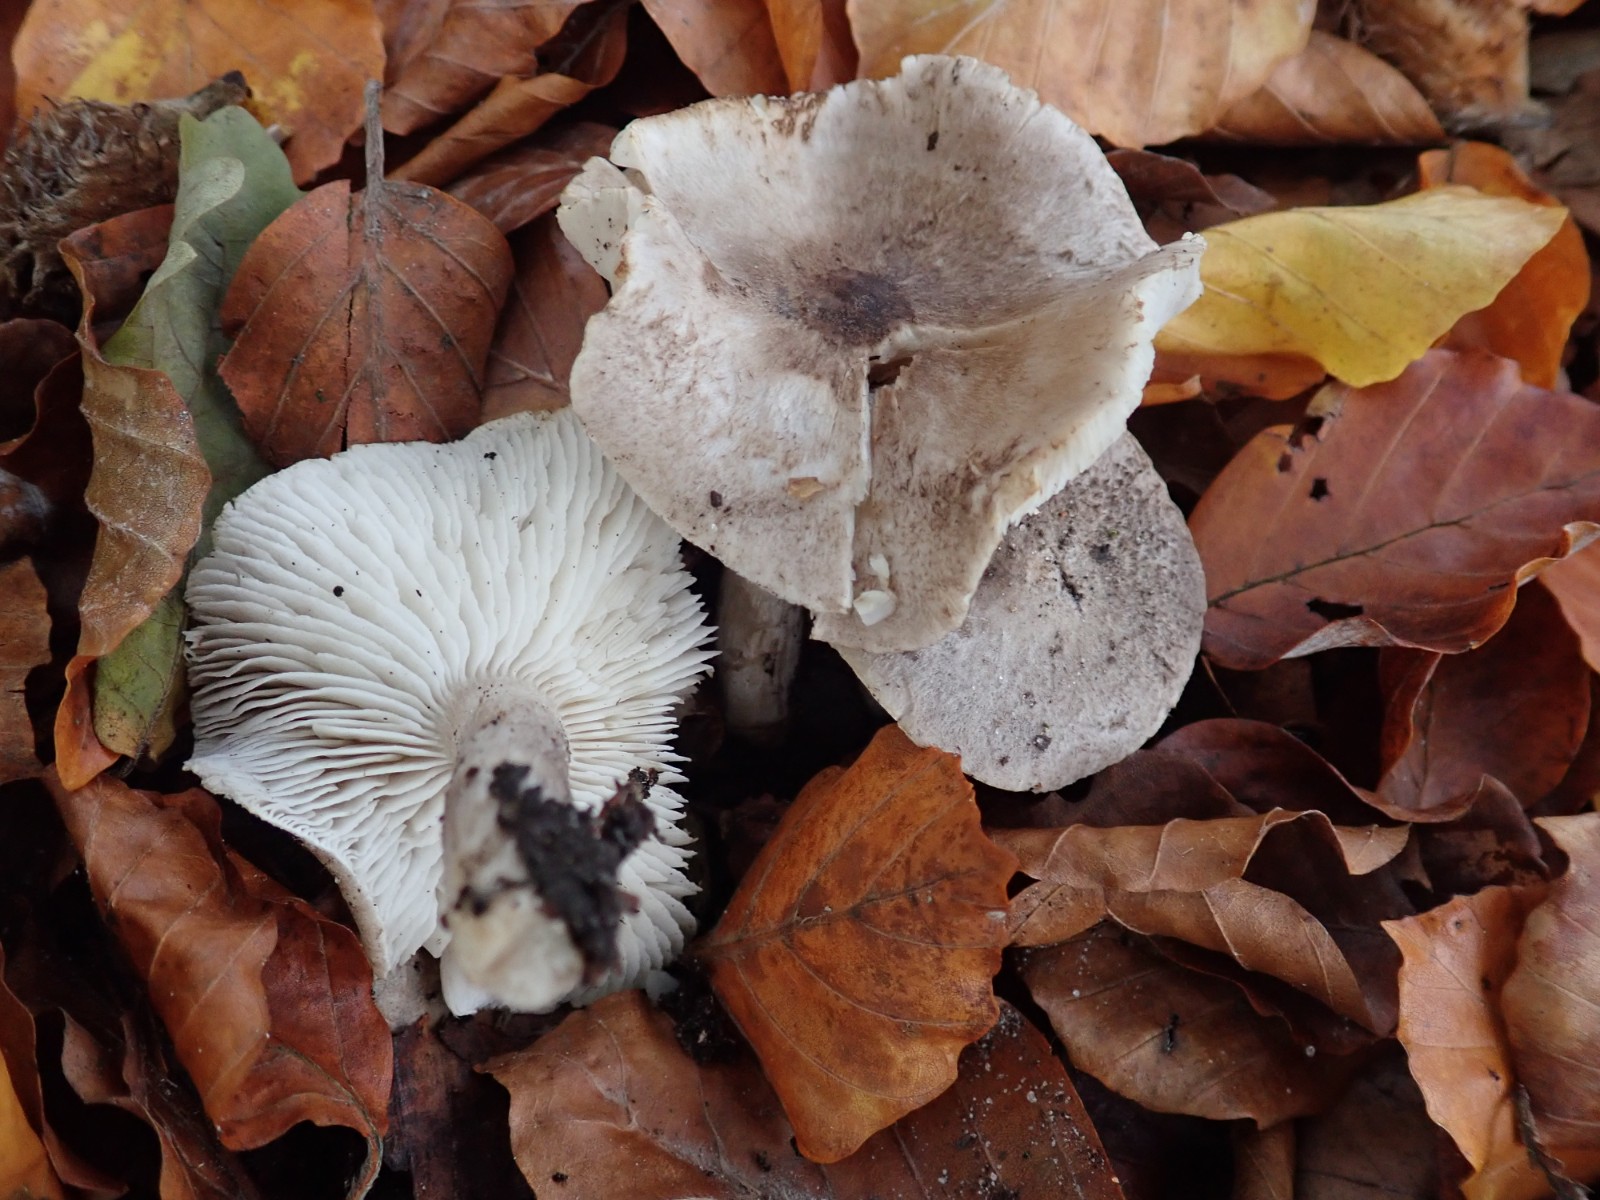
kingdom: Fungi
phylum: Basidiomycota
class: Agaricomycetes
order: Agaricales
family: Tricholomataceae
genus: Tricholoma
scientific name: Tricholoma scalpturatum
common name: gulplettet ridderhat
